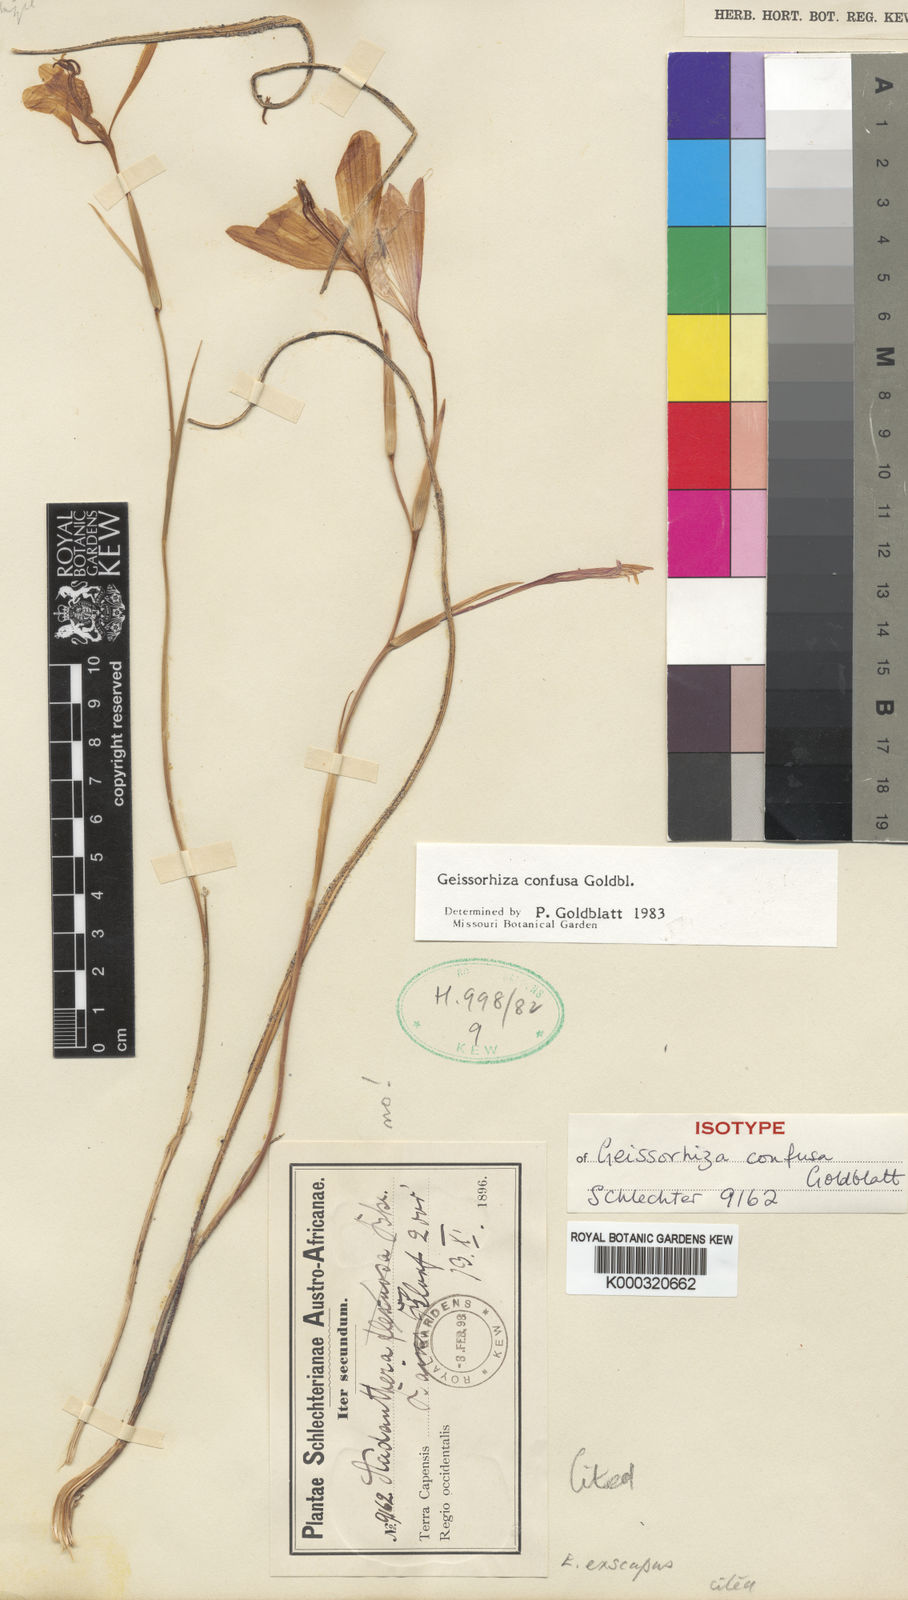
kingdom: Plantae
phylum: Tracheophyta
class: Liliopsida
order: Asparagales
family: Iridaceae
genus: Geissorhiza
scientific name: Geissorhiza confusa
